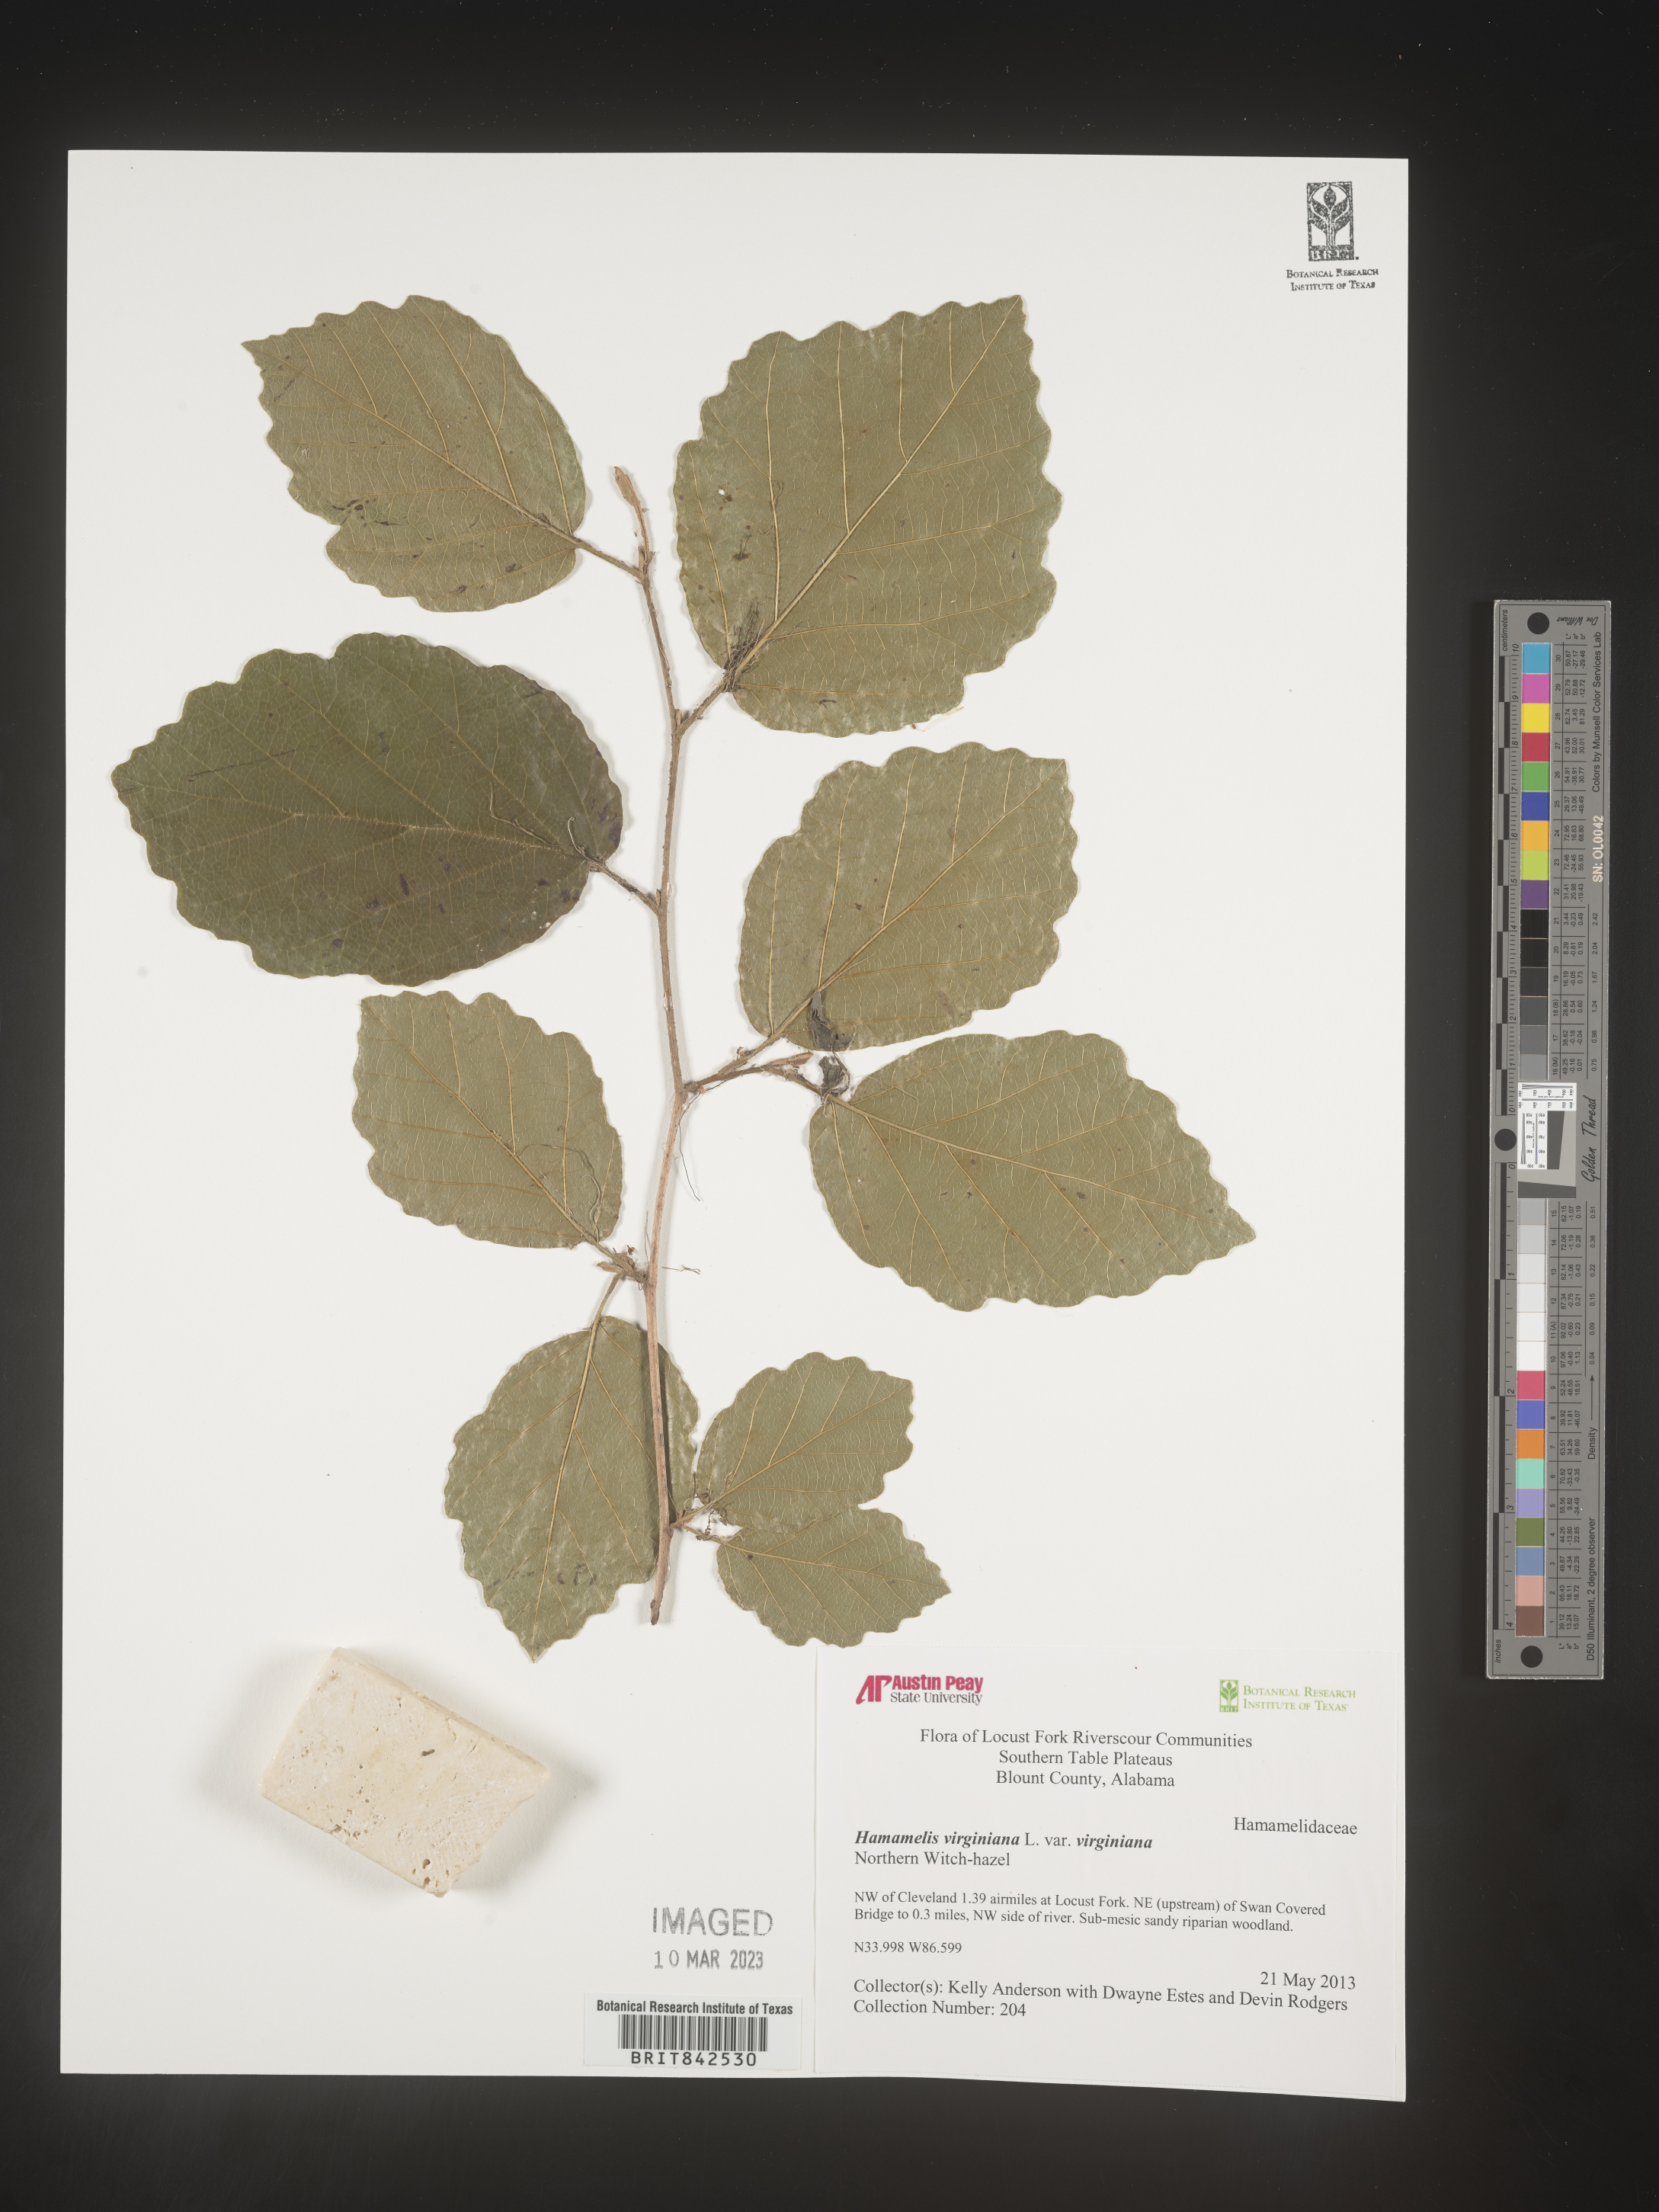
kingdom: Plantae
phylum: Tracheophyta
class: Magnoliopsida
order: Saxifragales
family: Hamamelidaceae
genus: Hamamelis
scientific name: Hamamelis virginiana
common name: Witch-hazel
